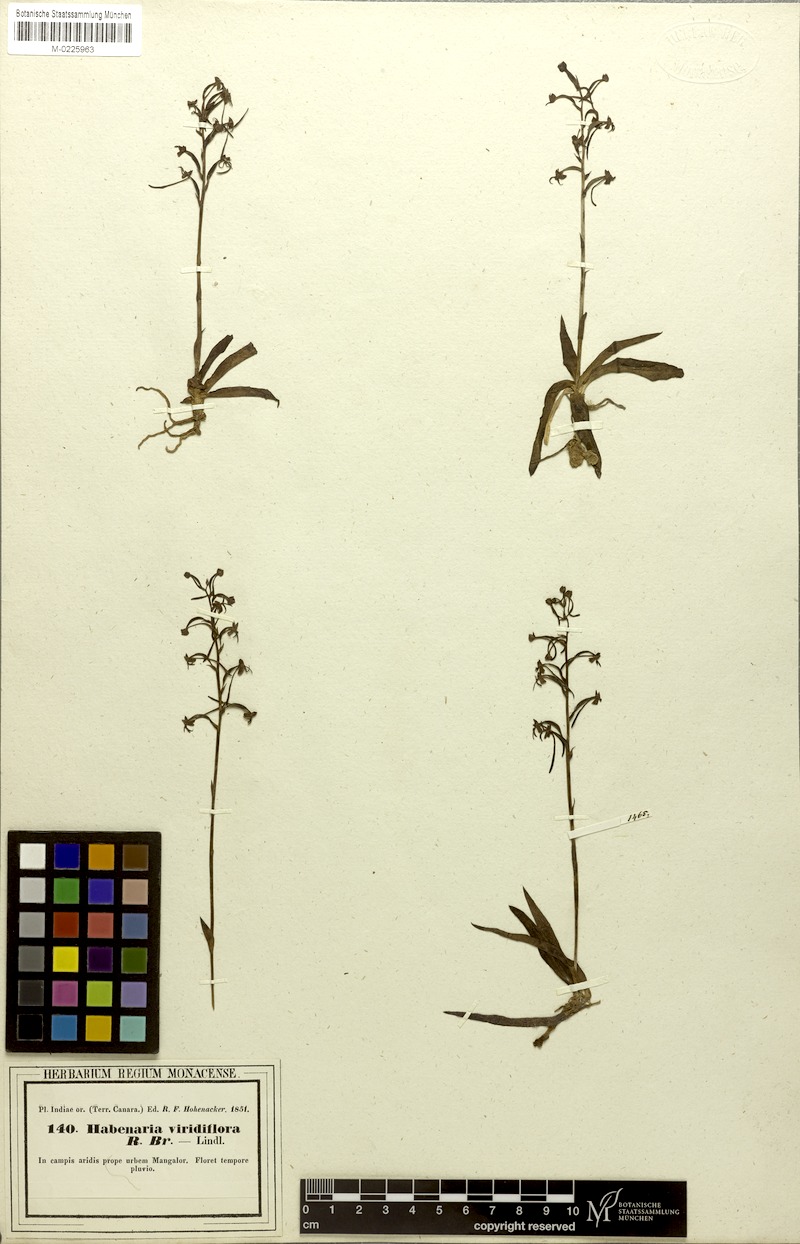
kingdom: Plantae
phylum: Tracheophyta
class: Liliopsida
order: Asparagales
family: Orchidaceae
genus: Habenaria
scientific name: Habenaria viridiflora
